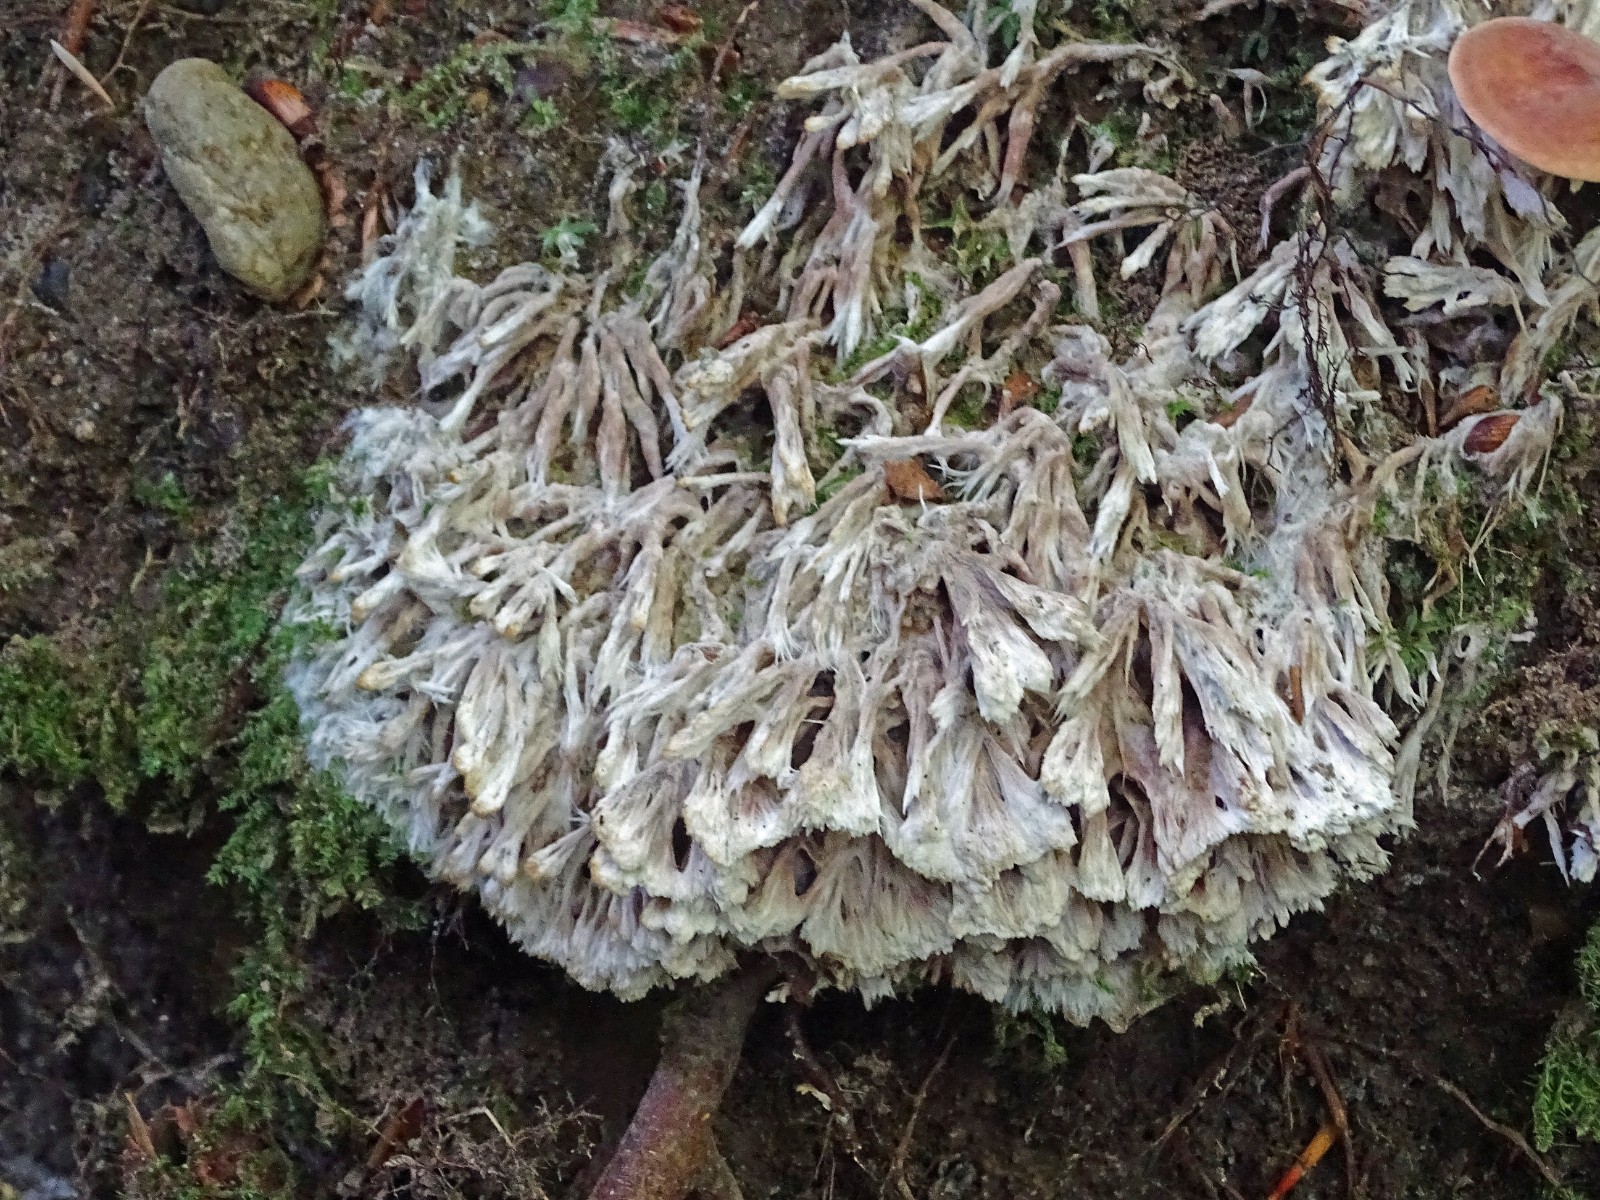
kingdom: Fungi
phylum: Basidiomycota
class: Agaricomycetes
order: Thelephorales
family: Thelephoraceae
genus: Thelephora
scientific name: Thelephora penicillata
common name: fladtrådt frynsesvamp
